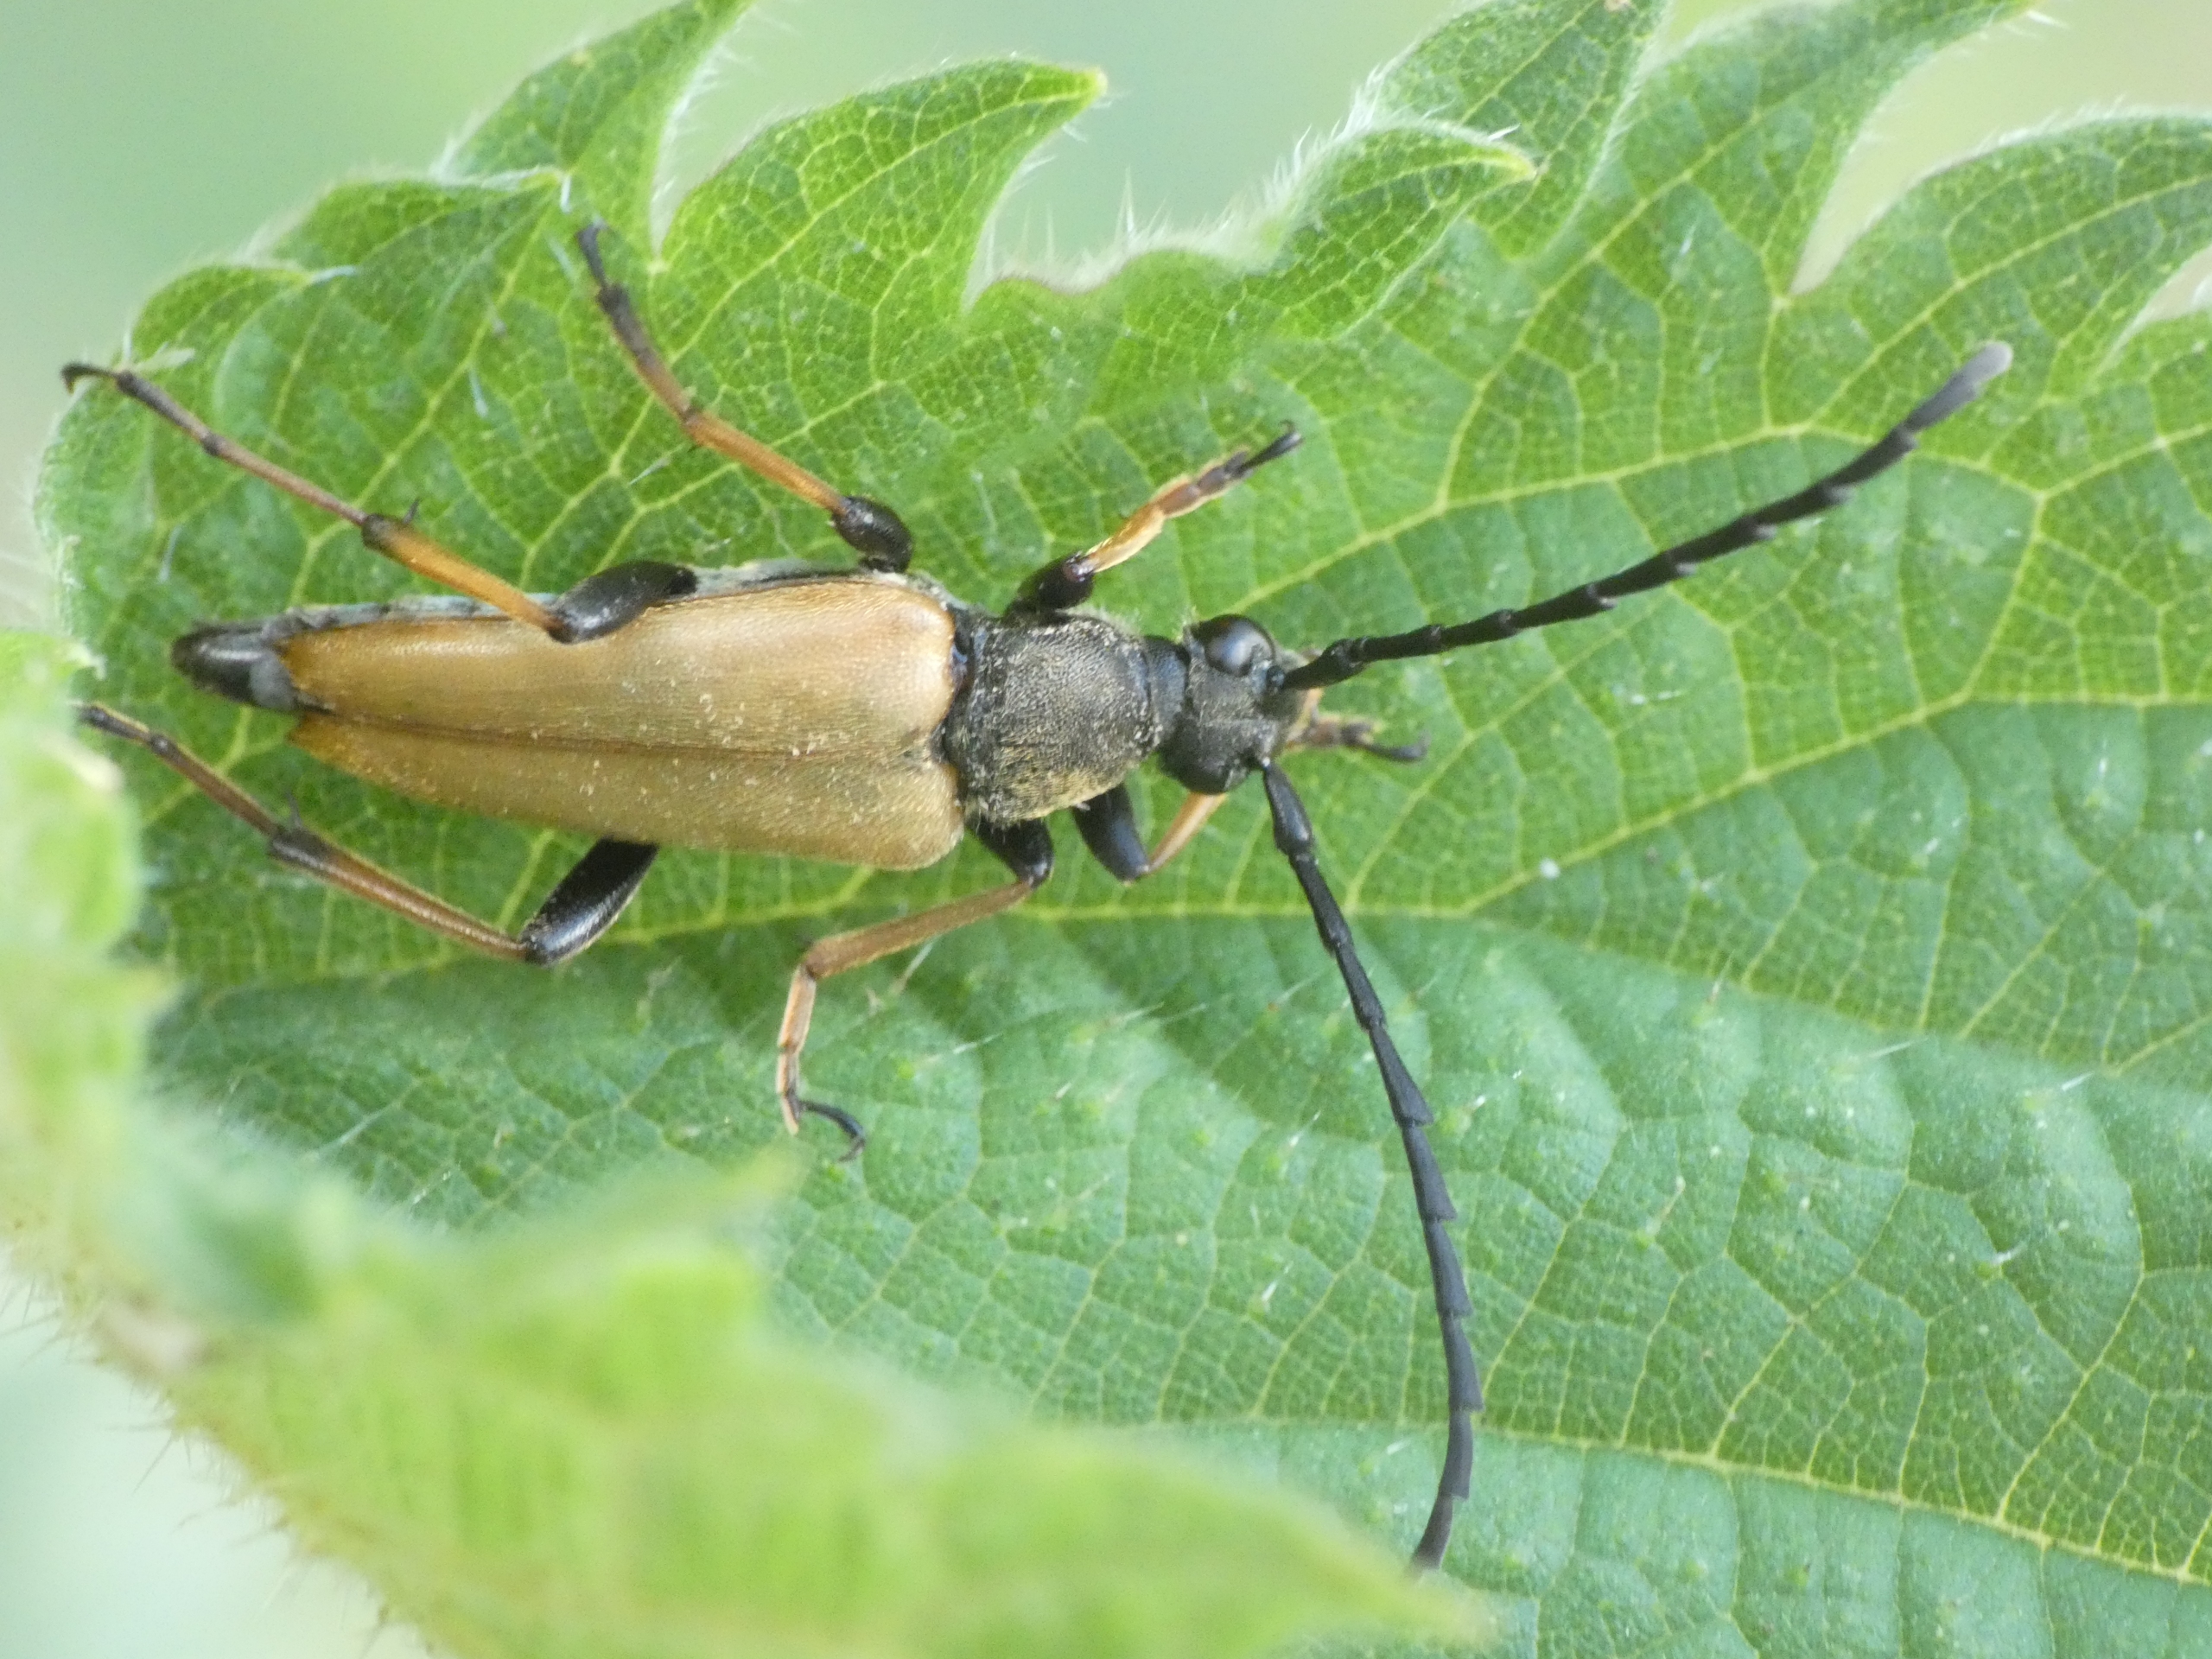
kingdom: Animalia
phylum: Arthropoda
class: Insecta
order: Coleoptera
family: Cerambycidae
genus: Stictoleptura
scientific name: Stictoleptura rubra
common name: Rød blomsterbuk
